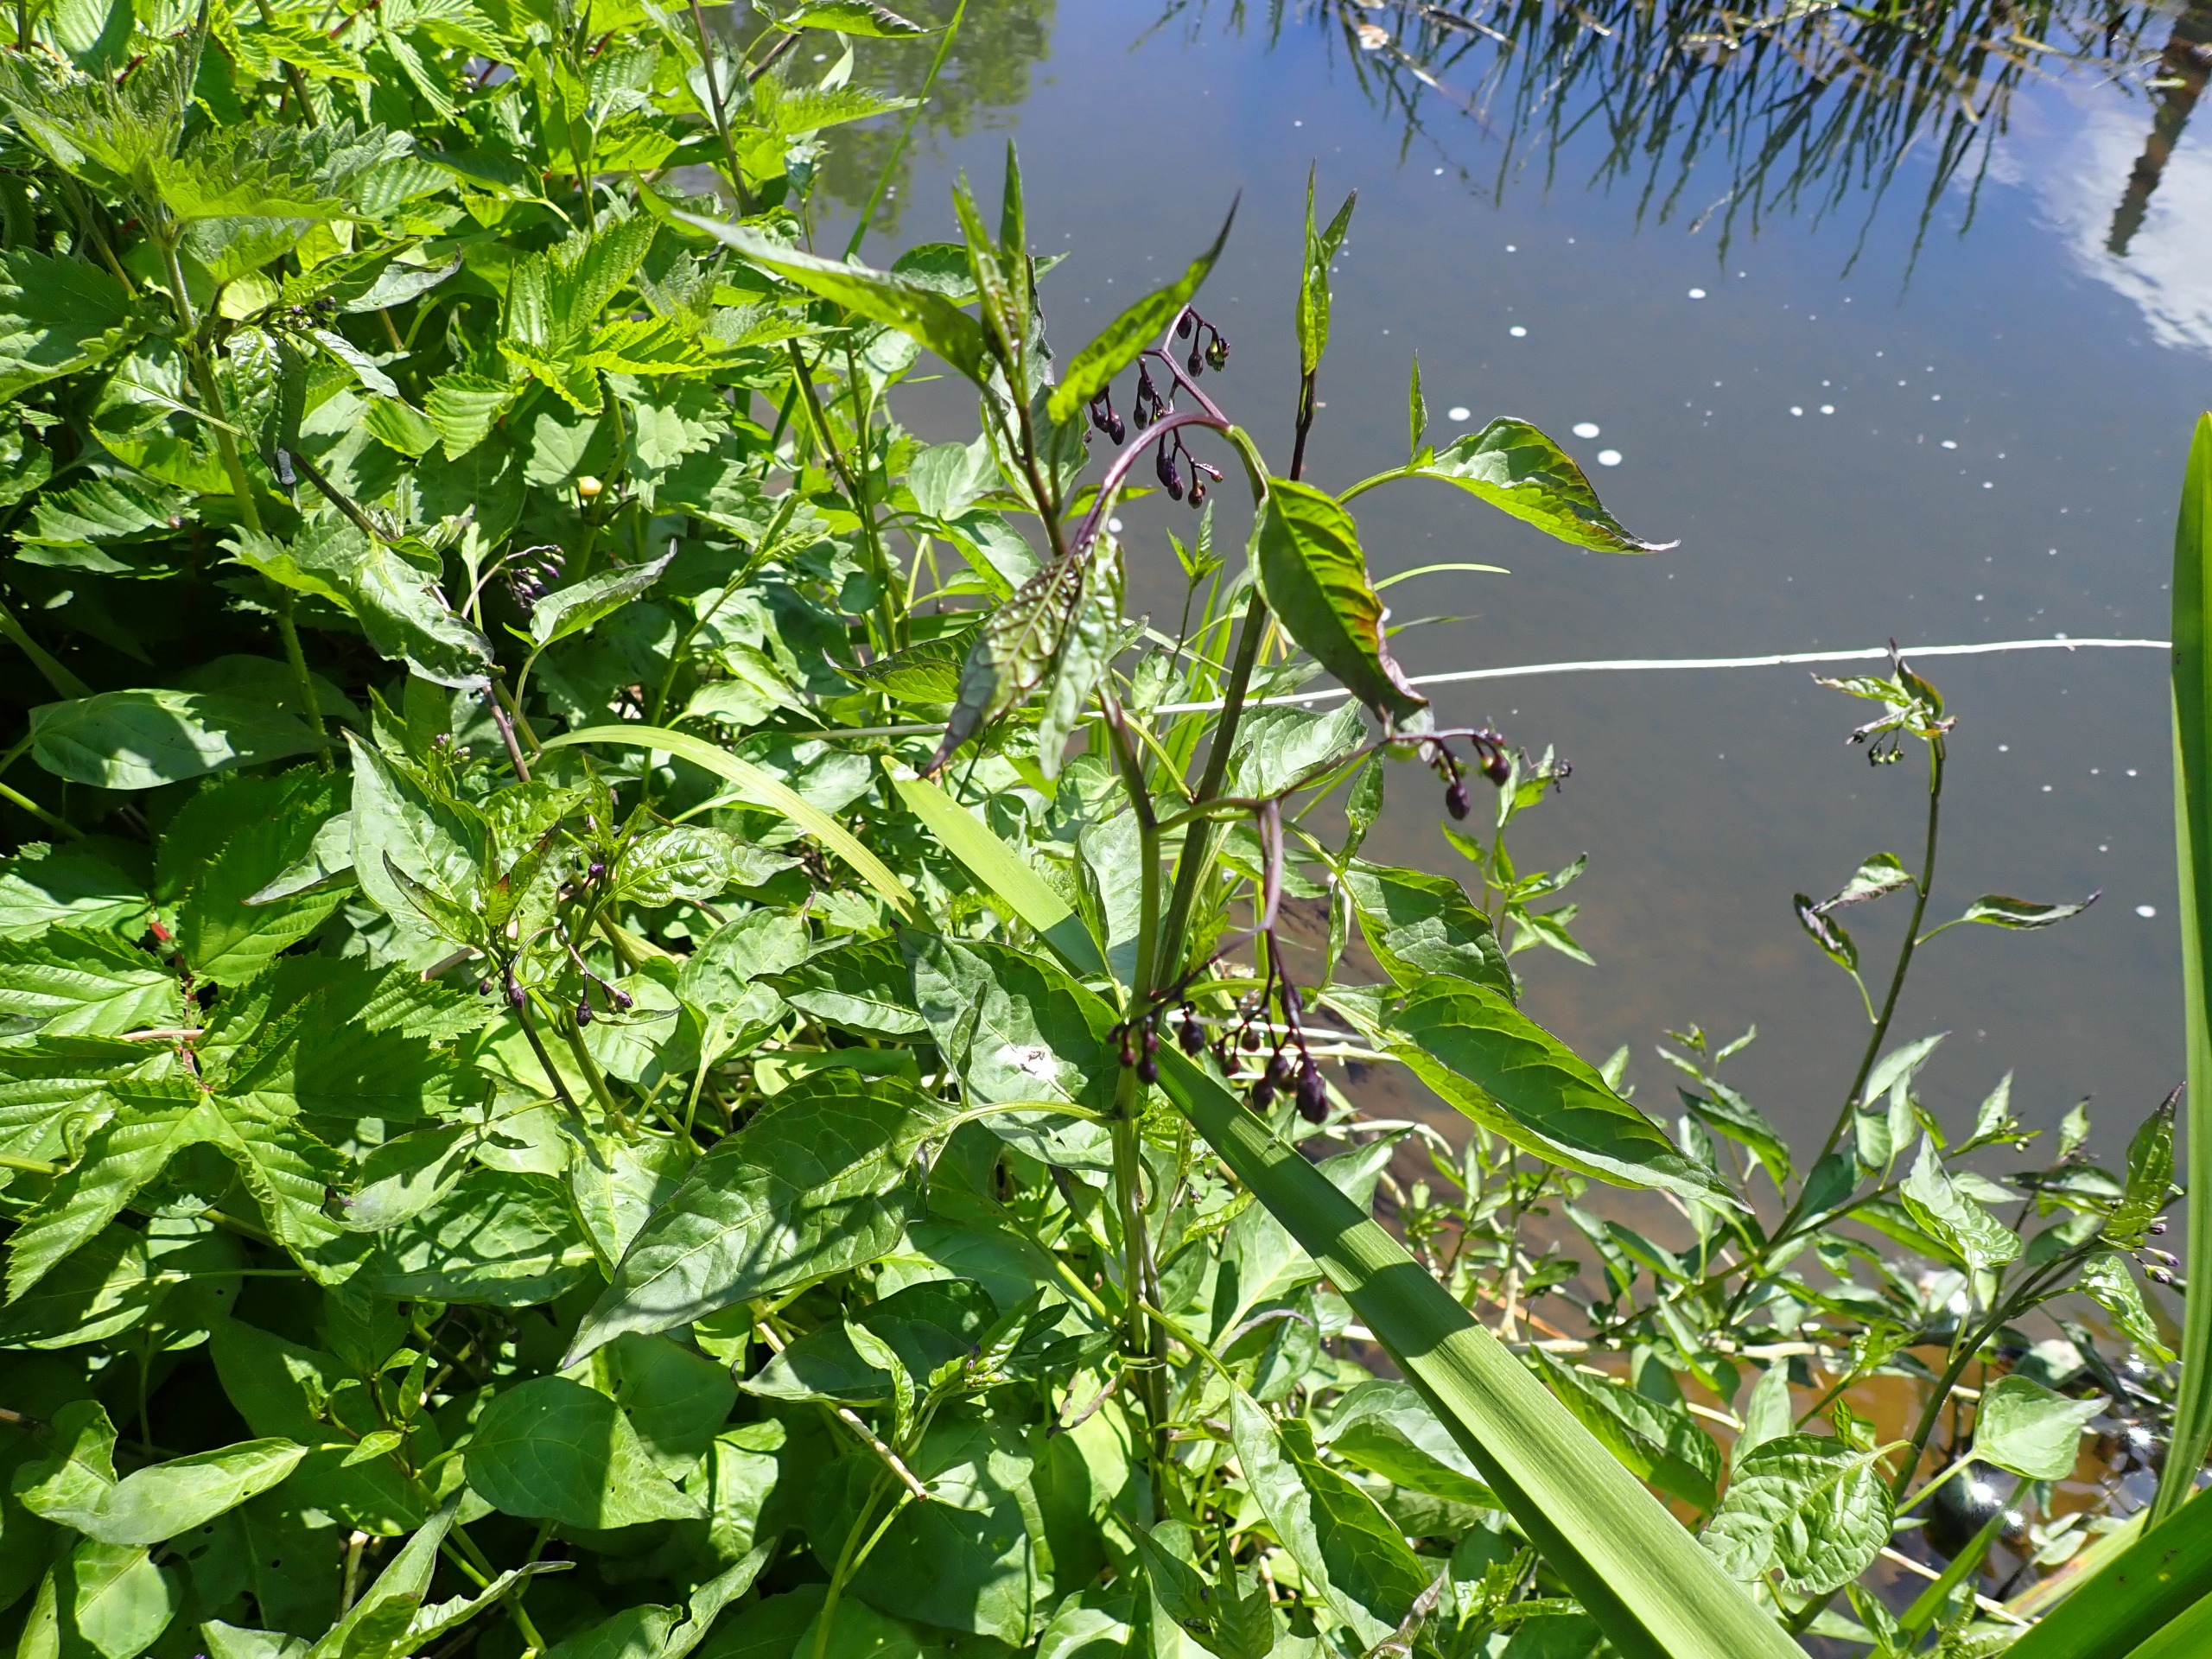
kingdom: Plantae
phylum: Tracheophyta
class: Magnoliopsida
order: Solanales
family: Solanaceae
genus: Solanum
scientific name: Solanum dulcamara
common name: Bittersød natskygge
